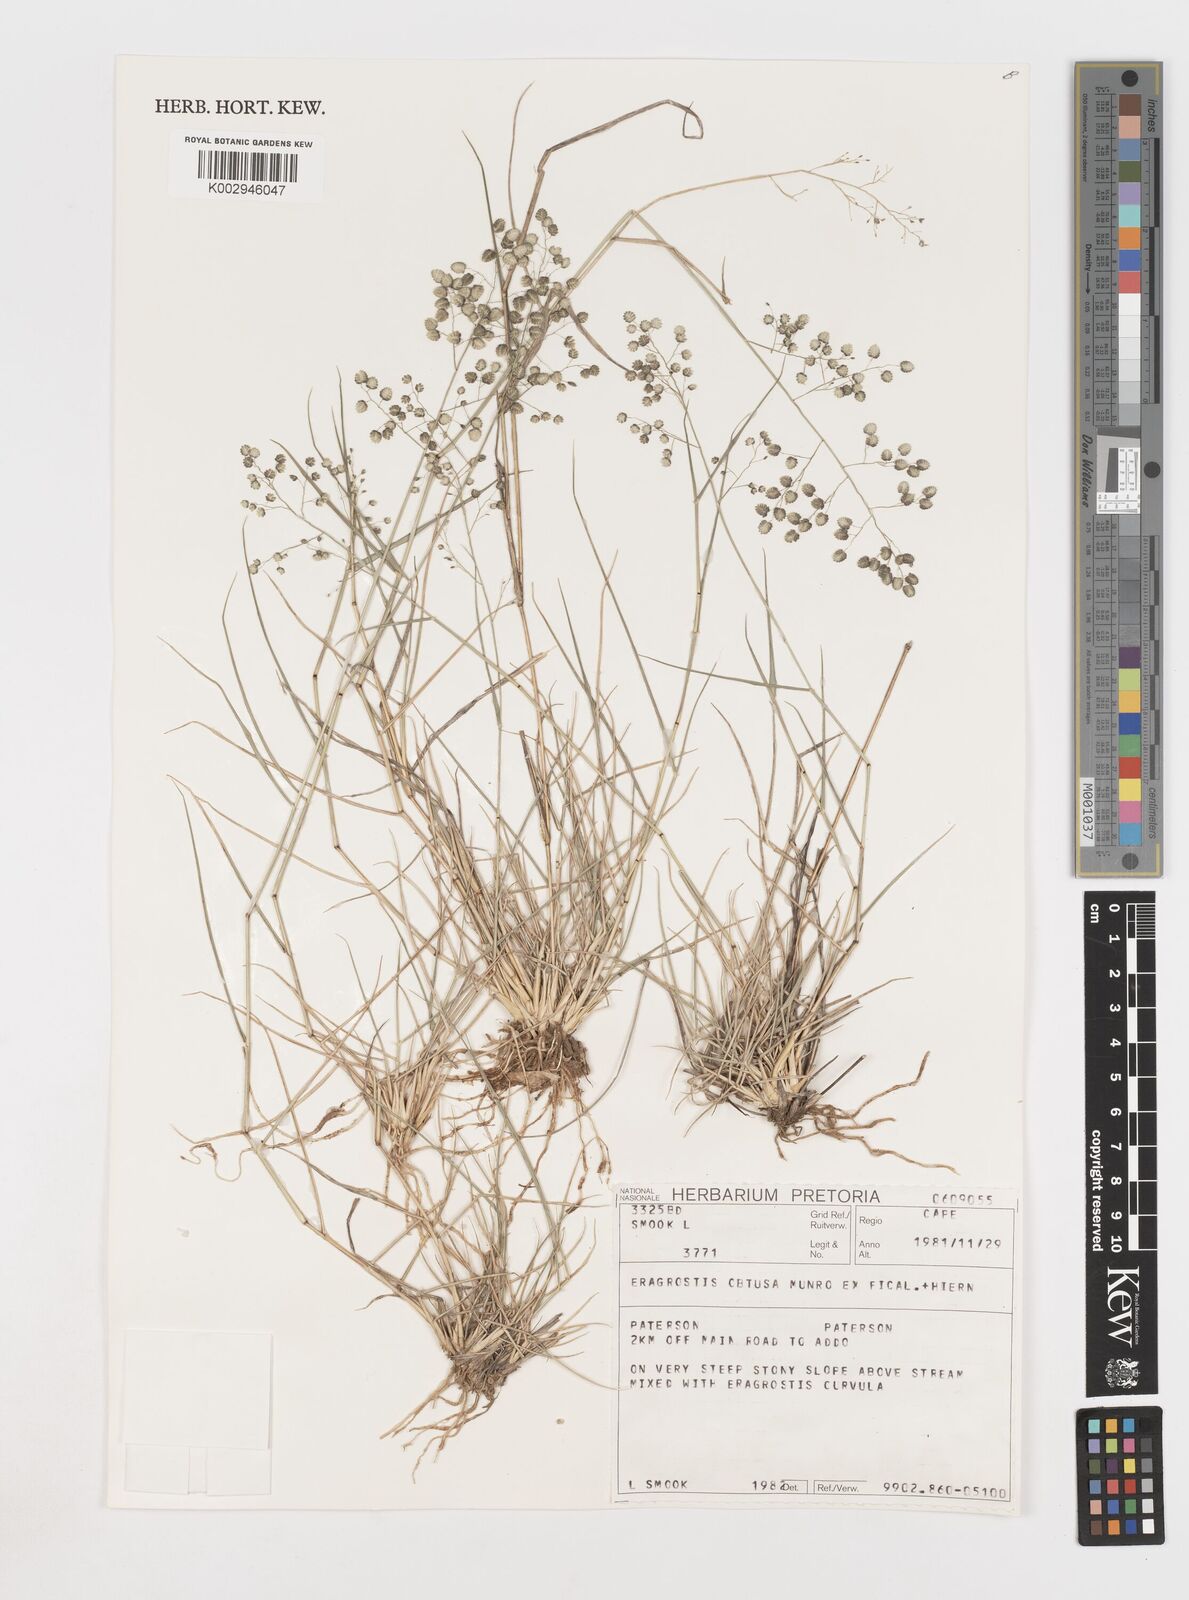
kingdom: Plantae
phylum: Tracheophyta
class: Liliopsida
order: Poales
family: Poaceae
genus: Eragrostis
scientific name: Eragrostis obtusa
